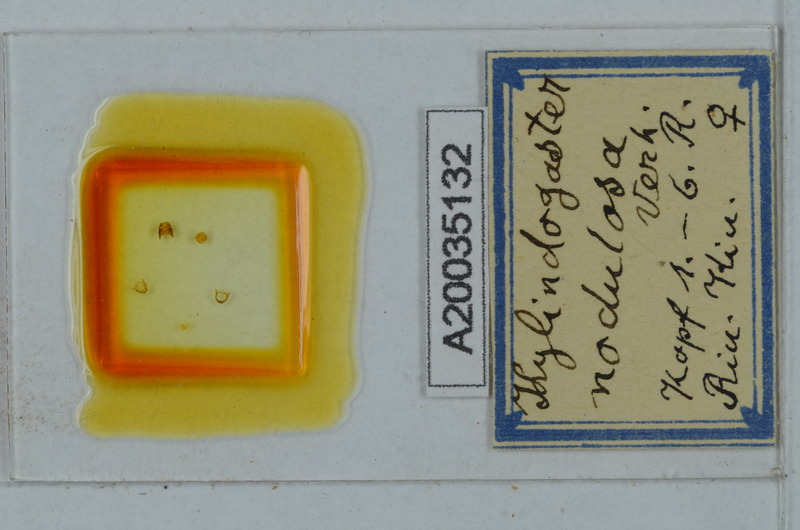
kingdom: Animalia
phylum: Arthropoda
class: Diplopoda
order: Polydesmida
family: Haplodesmidae
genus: Eutrichodesmus
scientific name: Eutrichodesmus nodulosus
